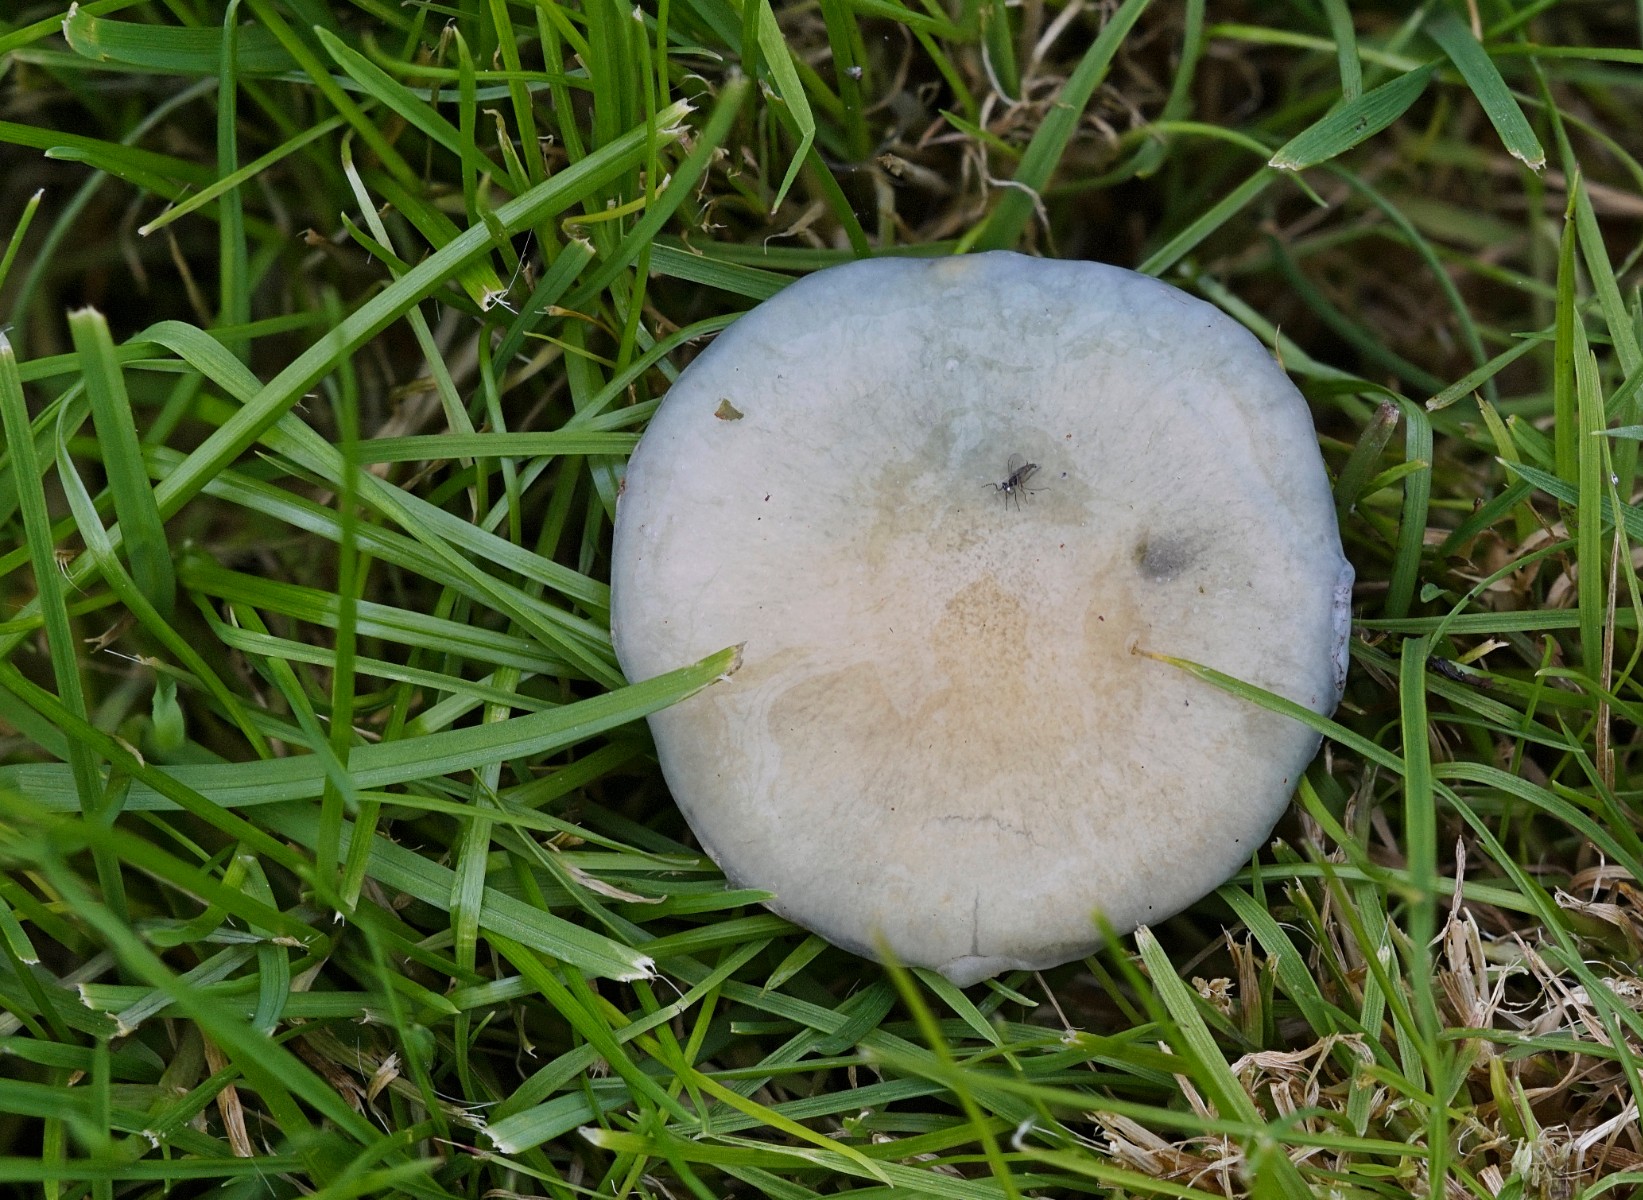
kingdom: Fungi
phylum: Basidiomycota
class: Agaricomycetes
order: Agaricales
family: Strophariaceae
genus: Stropharia
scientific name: Stropharia
